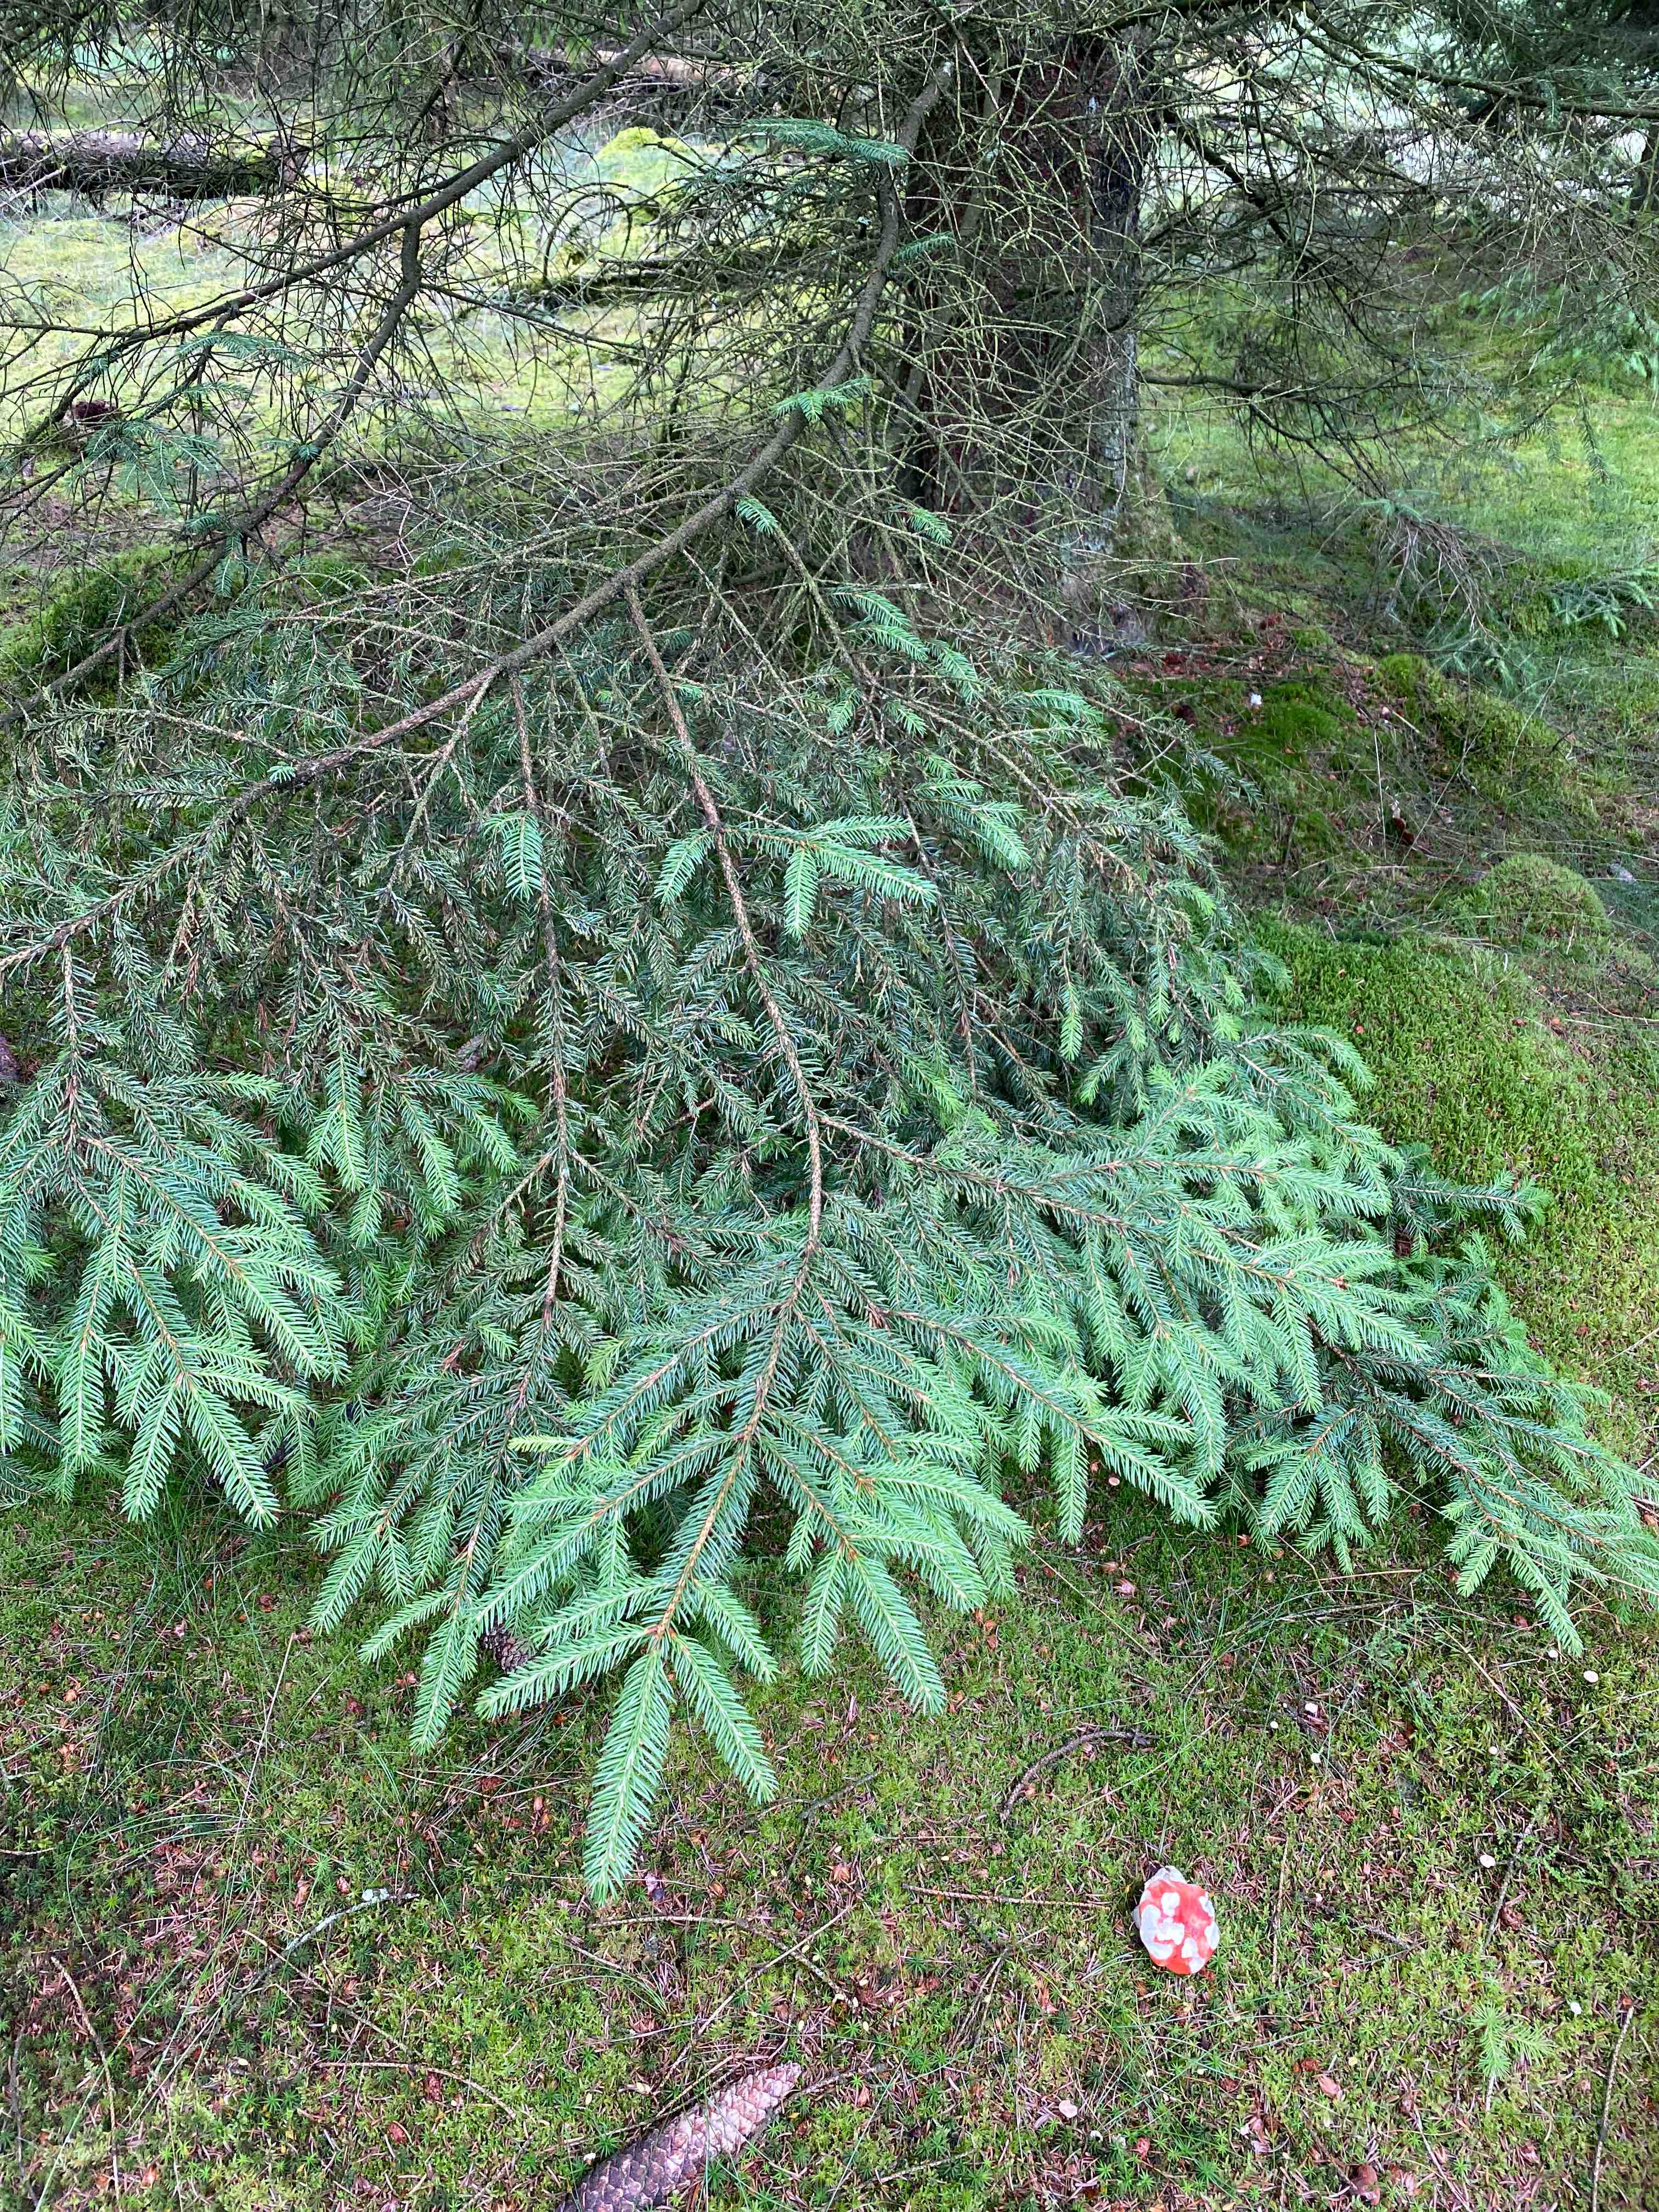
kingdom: Fungi
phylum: Basidiomycota
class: Agaricomycetes
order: Russulales
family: Russulaceae
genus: Russula
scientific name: Russula
